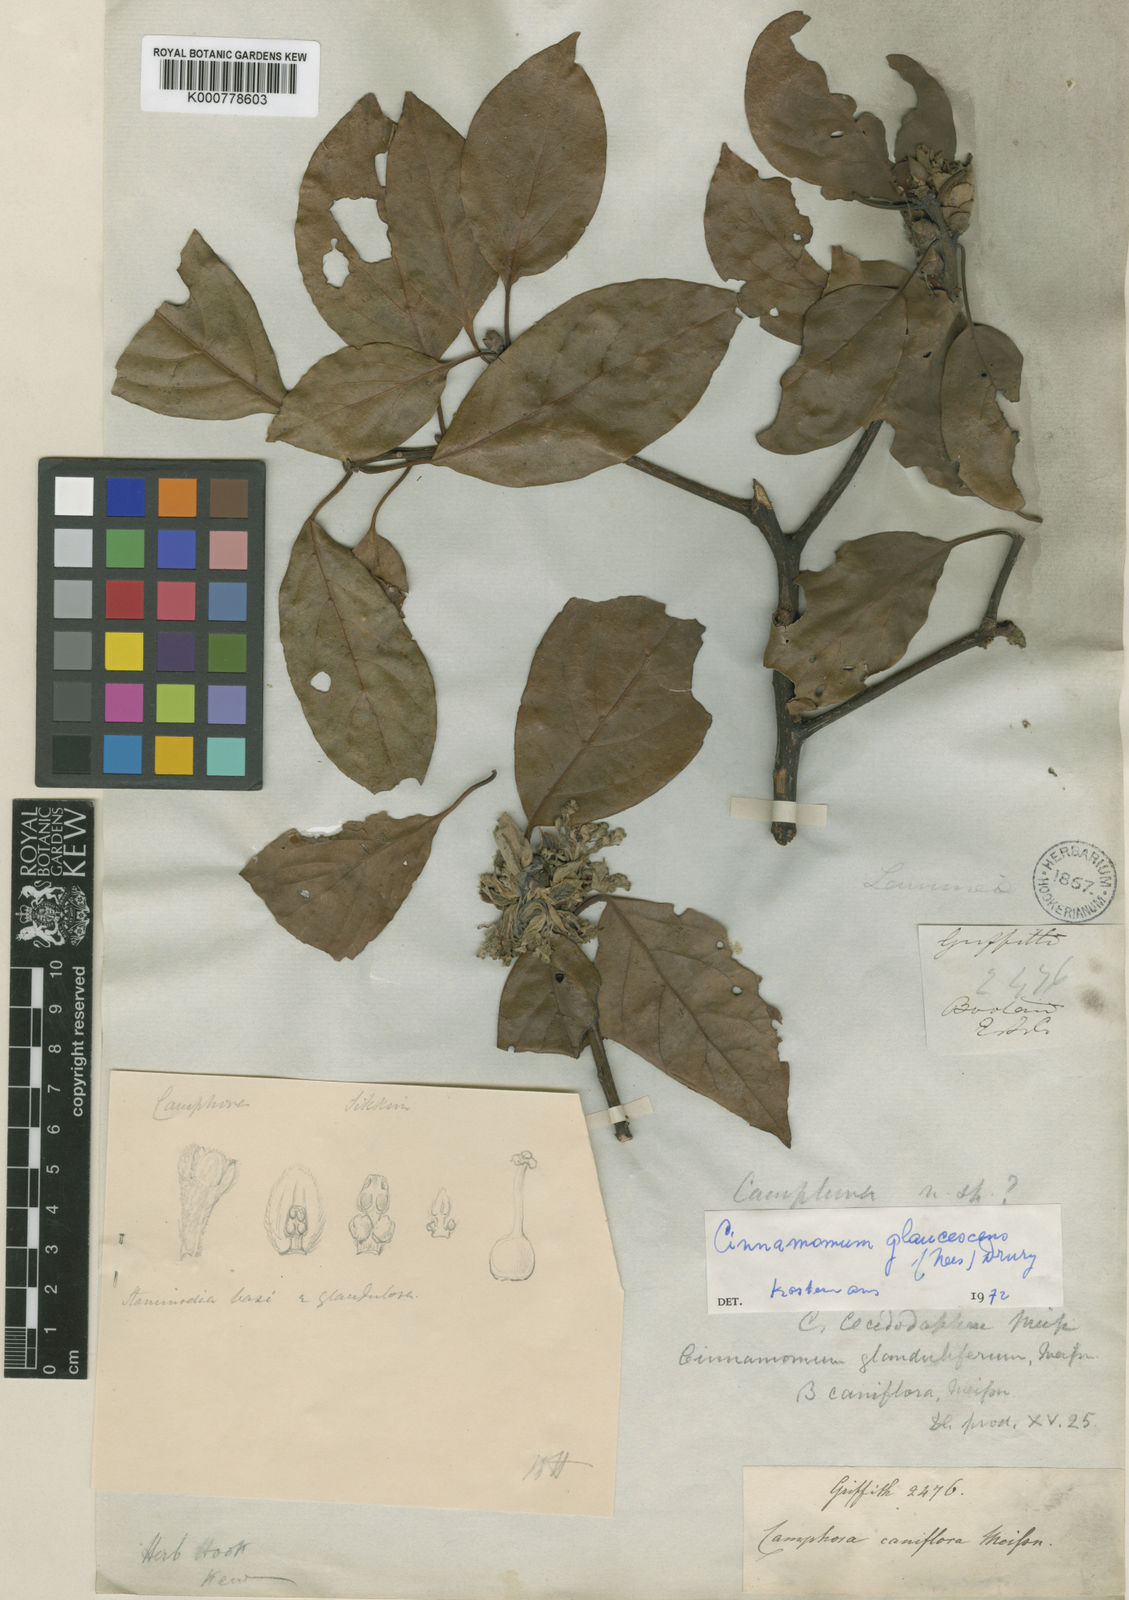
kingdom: Plantae
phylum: Tracheophyta
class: Magnoliopsida
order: Laurales
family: Lauraceae
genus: Cinnamomum
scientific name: Cinnamomum glaucescens
